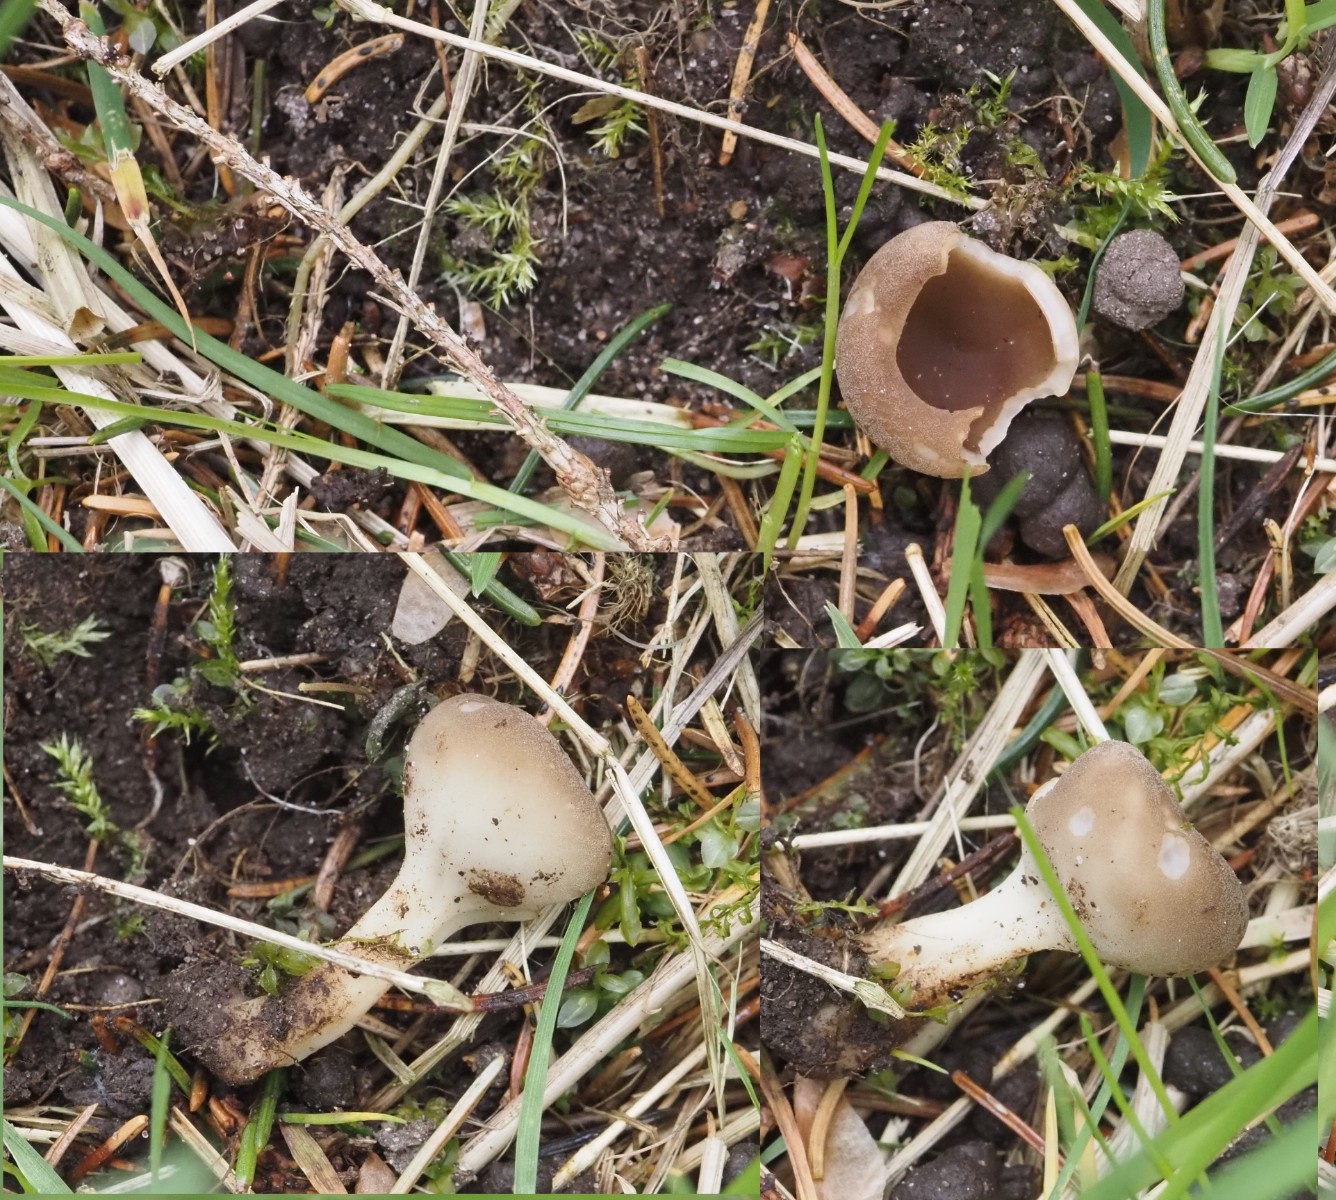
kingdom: Fungi
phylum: Ascomycota
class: Pezizomycetes
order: Pezizales
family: Helvellaceae
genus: Dissingia
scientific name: Dissingia confusa
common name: gran-foldhat
